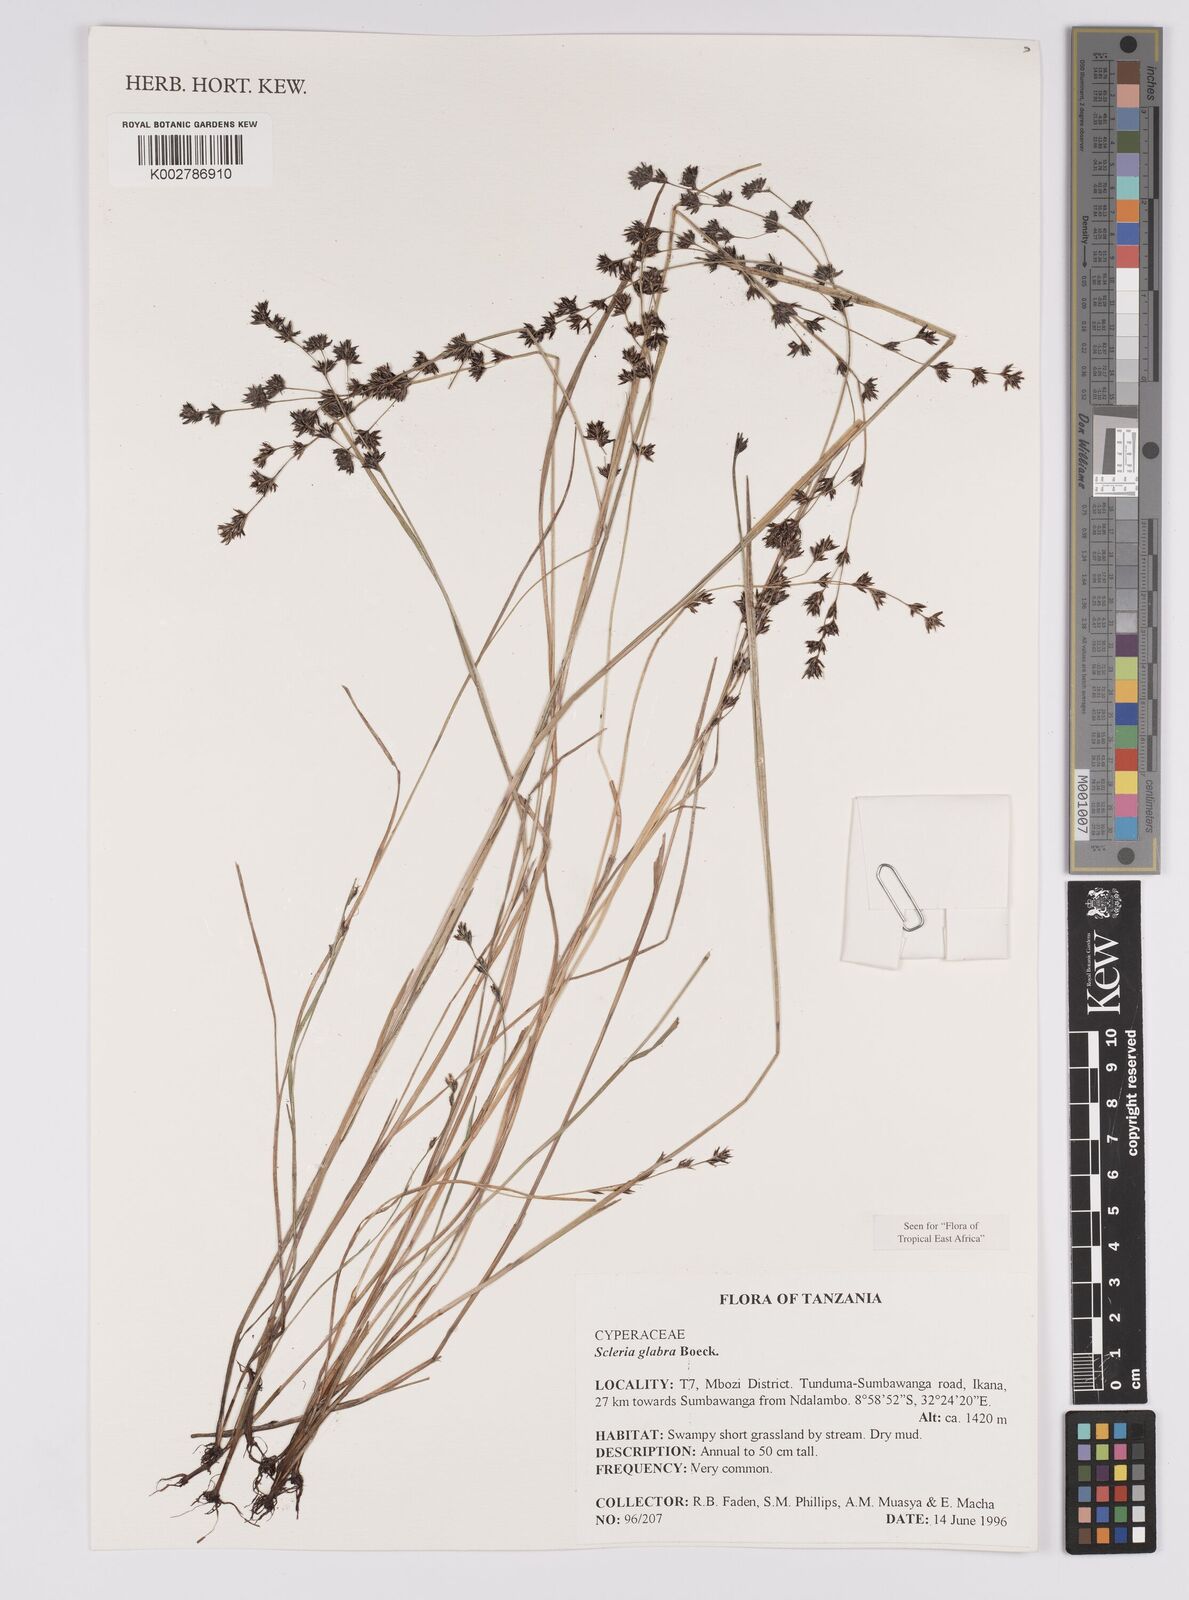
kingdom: Plantae
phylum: Tracheophyta
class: Liliopsida
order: Poales
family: Cyperaceae
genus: Scleria
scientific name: Scleria glabra
